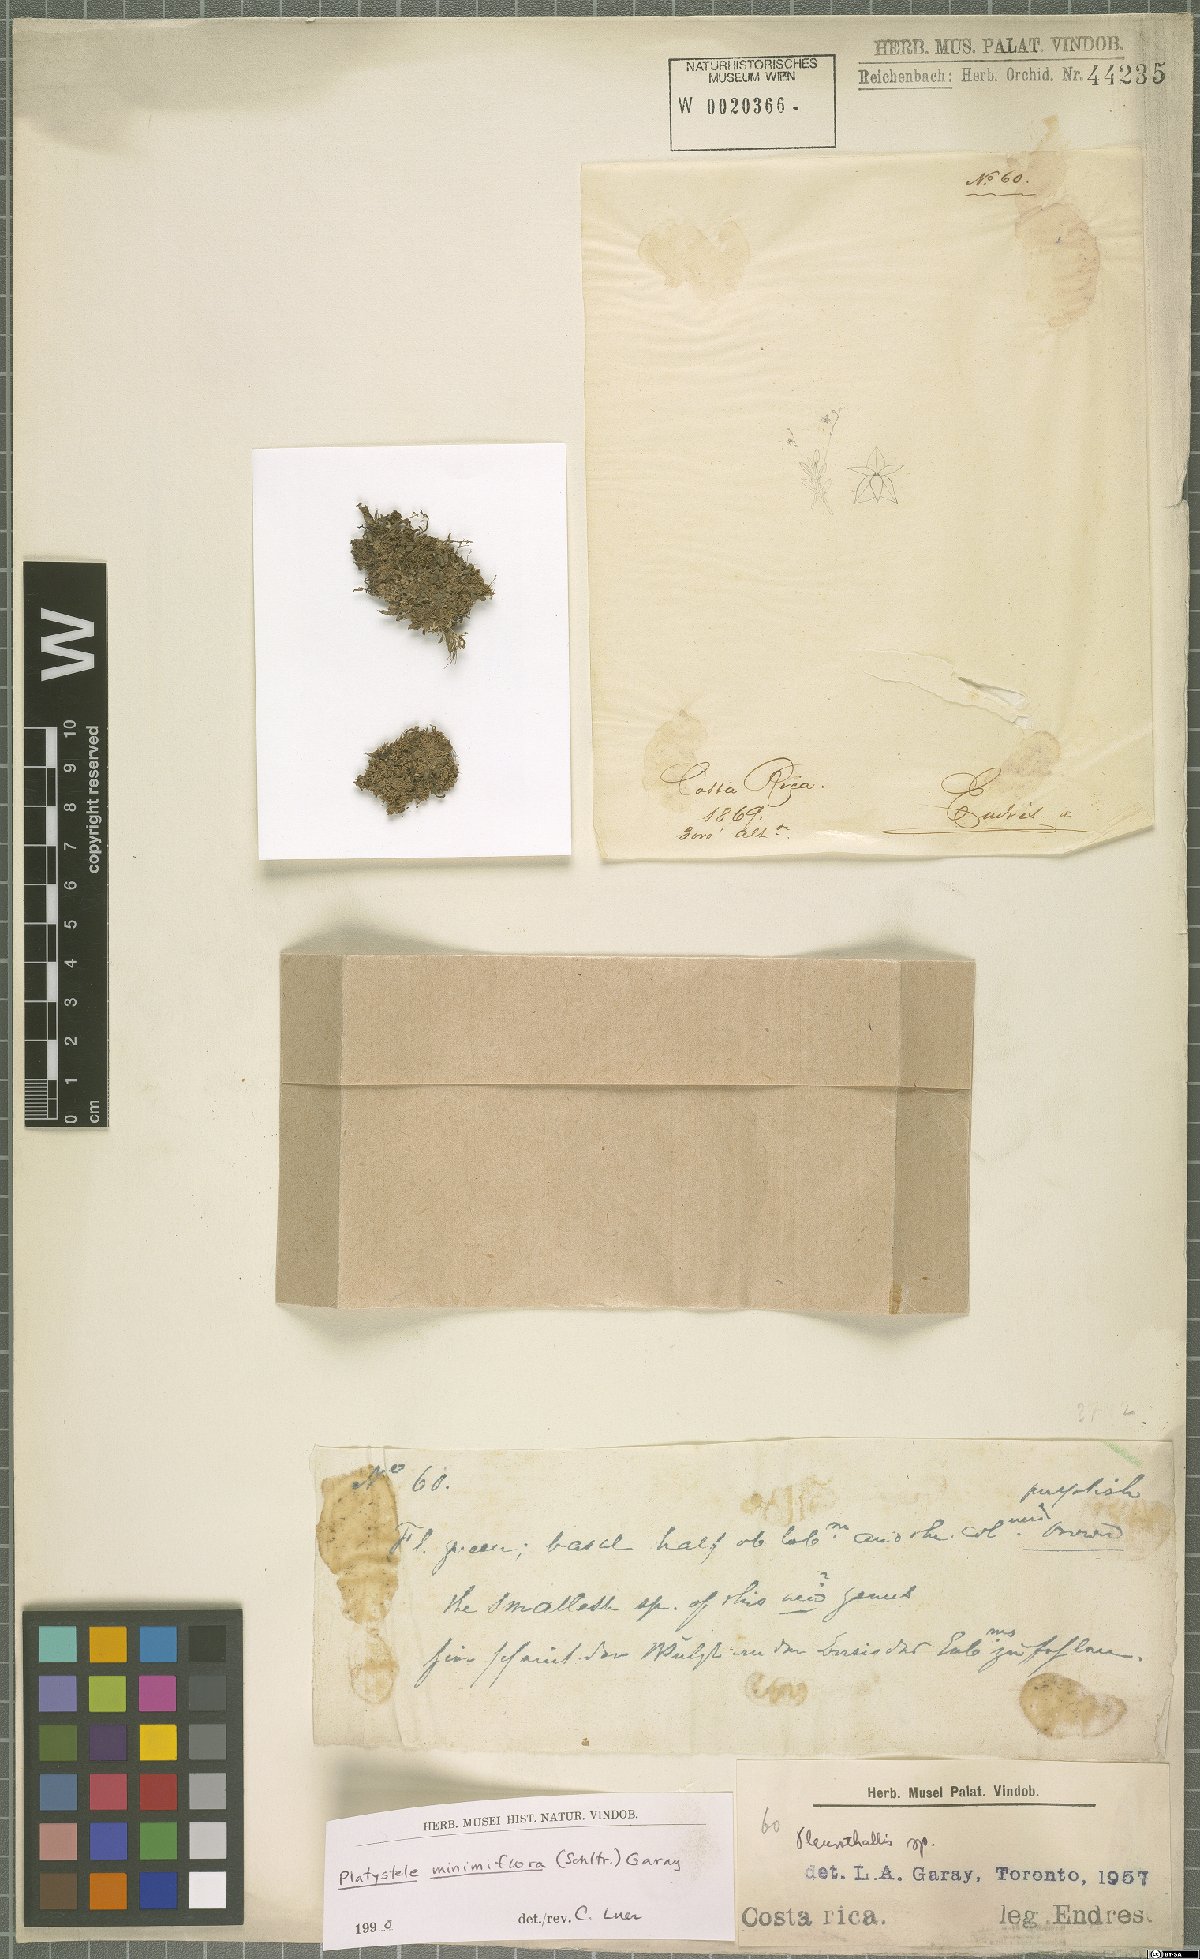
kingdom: Plantae
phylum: Tracheophyta
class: Liliopsida
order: Asparagales
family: Orchidaceae
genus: Platystele
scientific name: Platystele minimiflora
